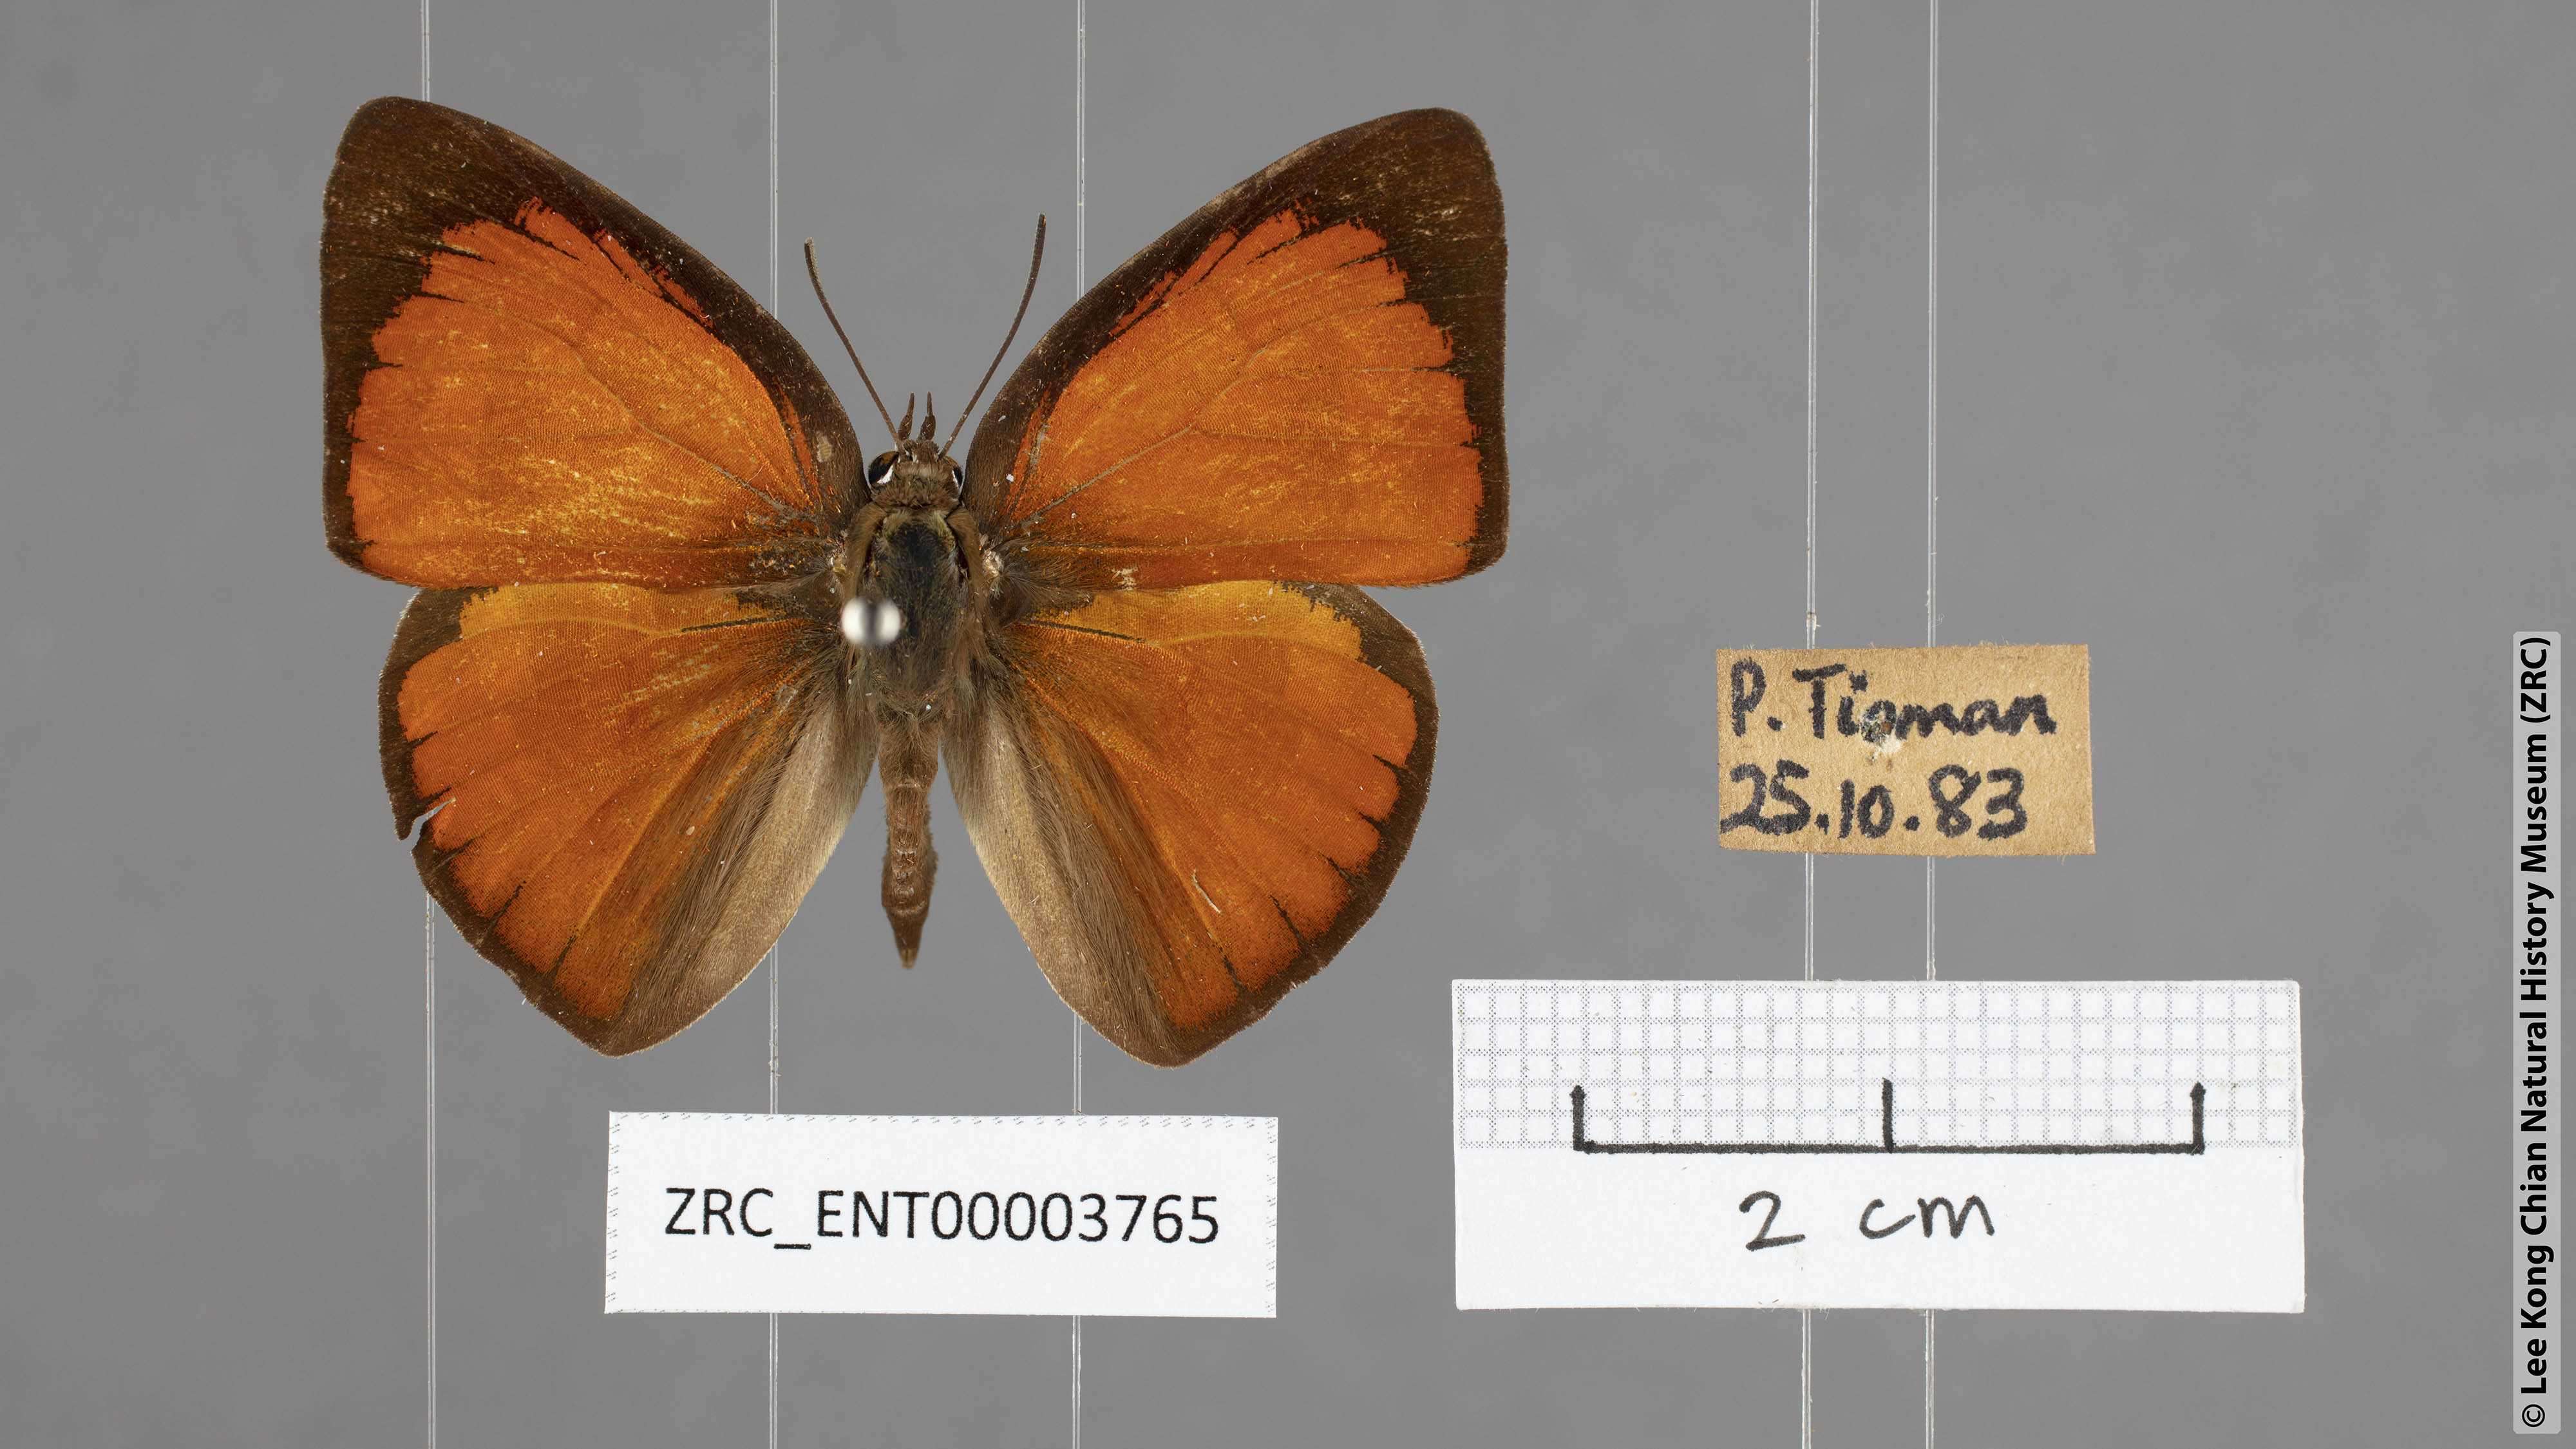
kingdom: Animalia
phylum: Arthropoda
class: Insecta
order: Lepidoptera
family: Lycaenidae
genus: Curetis
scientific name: Curetis tagalica
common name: Southern sunbeam
